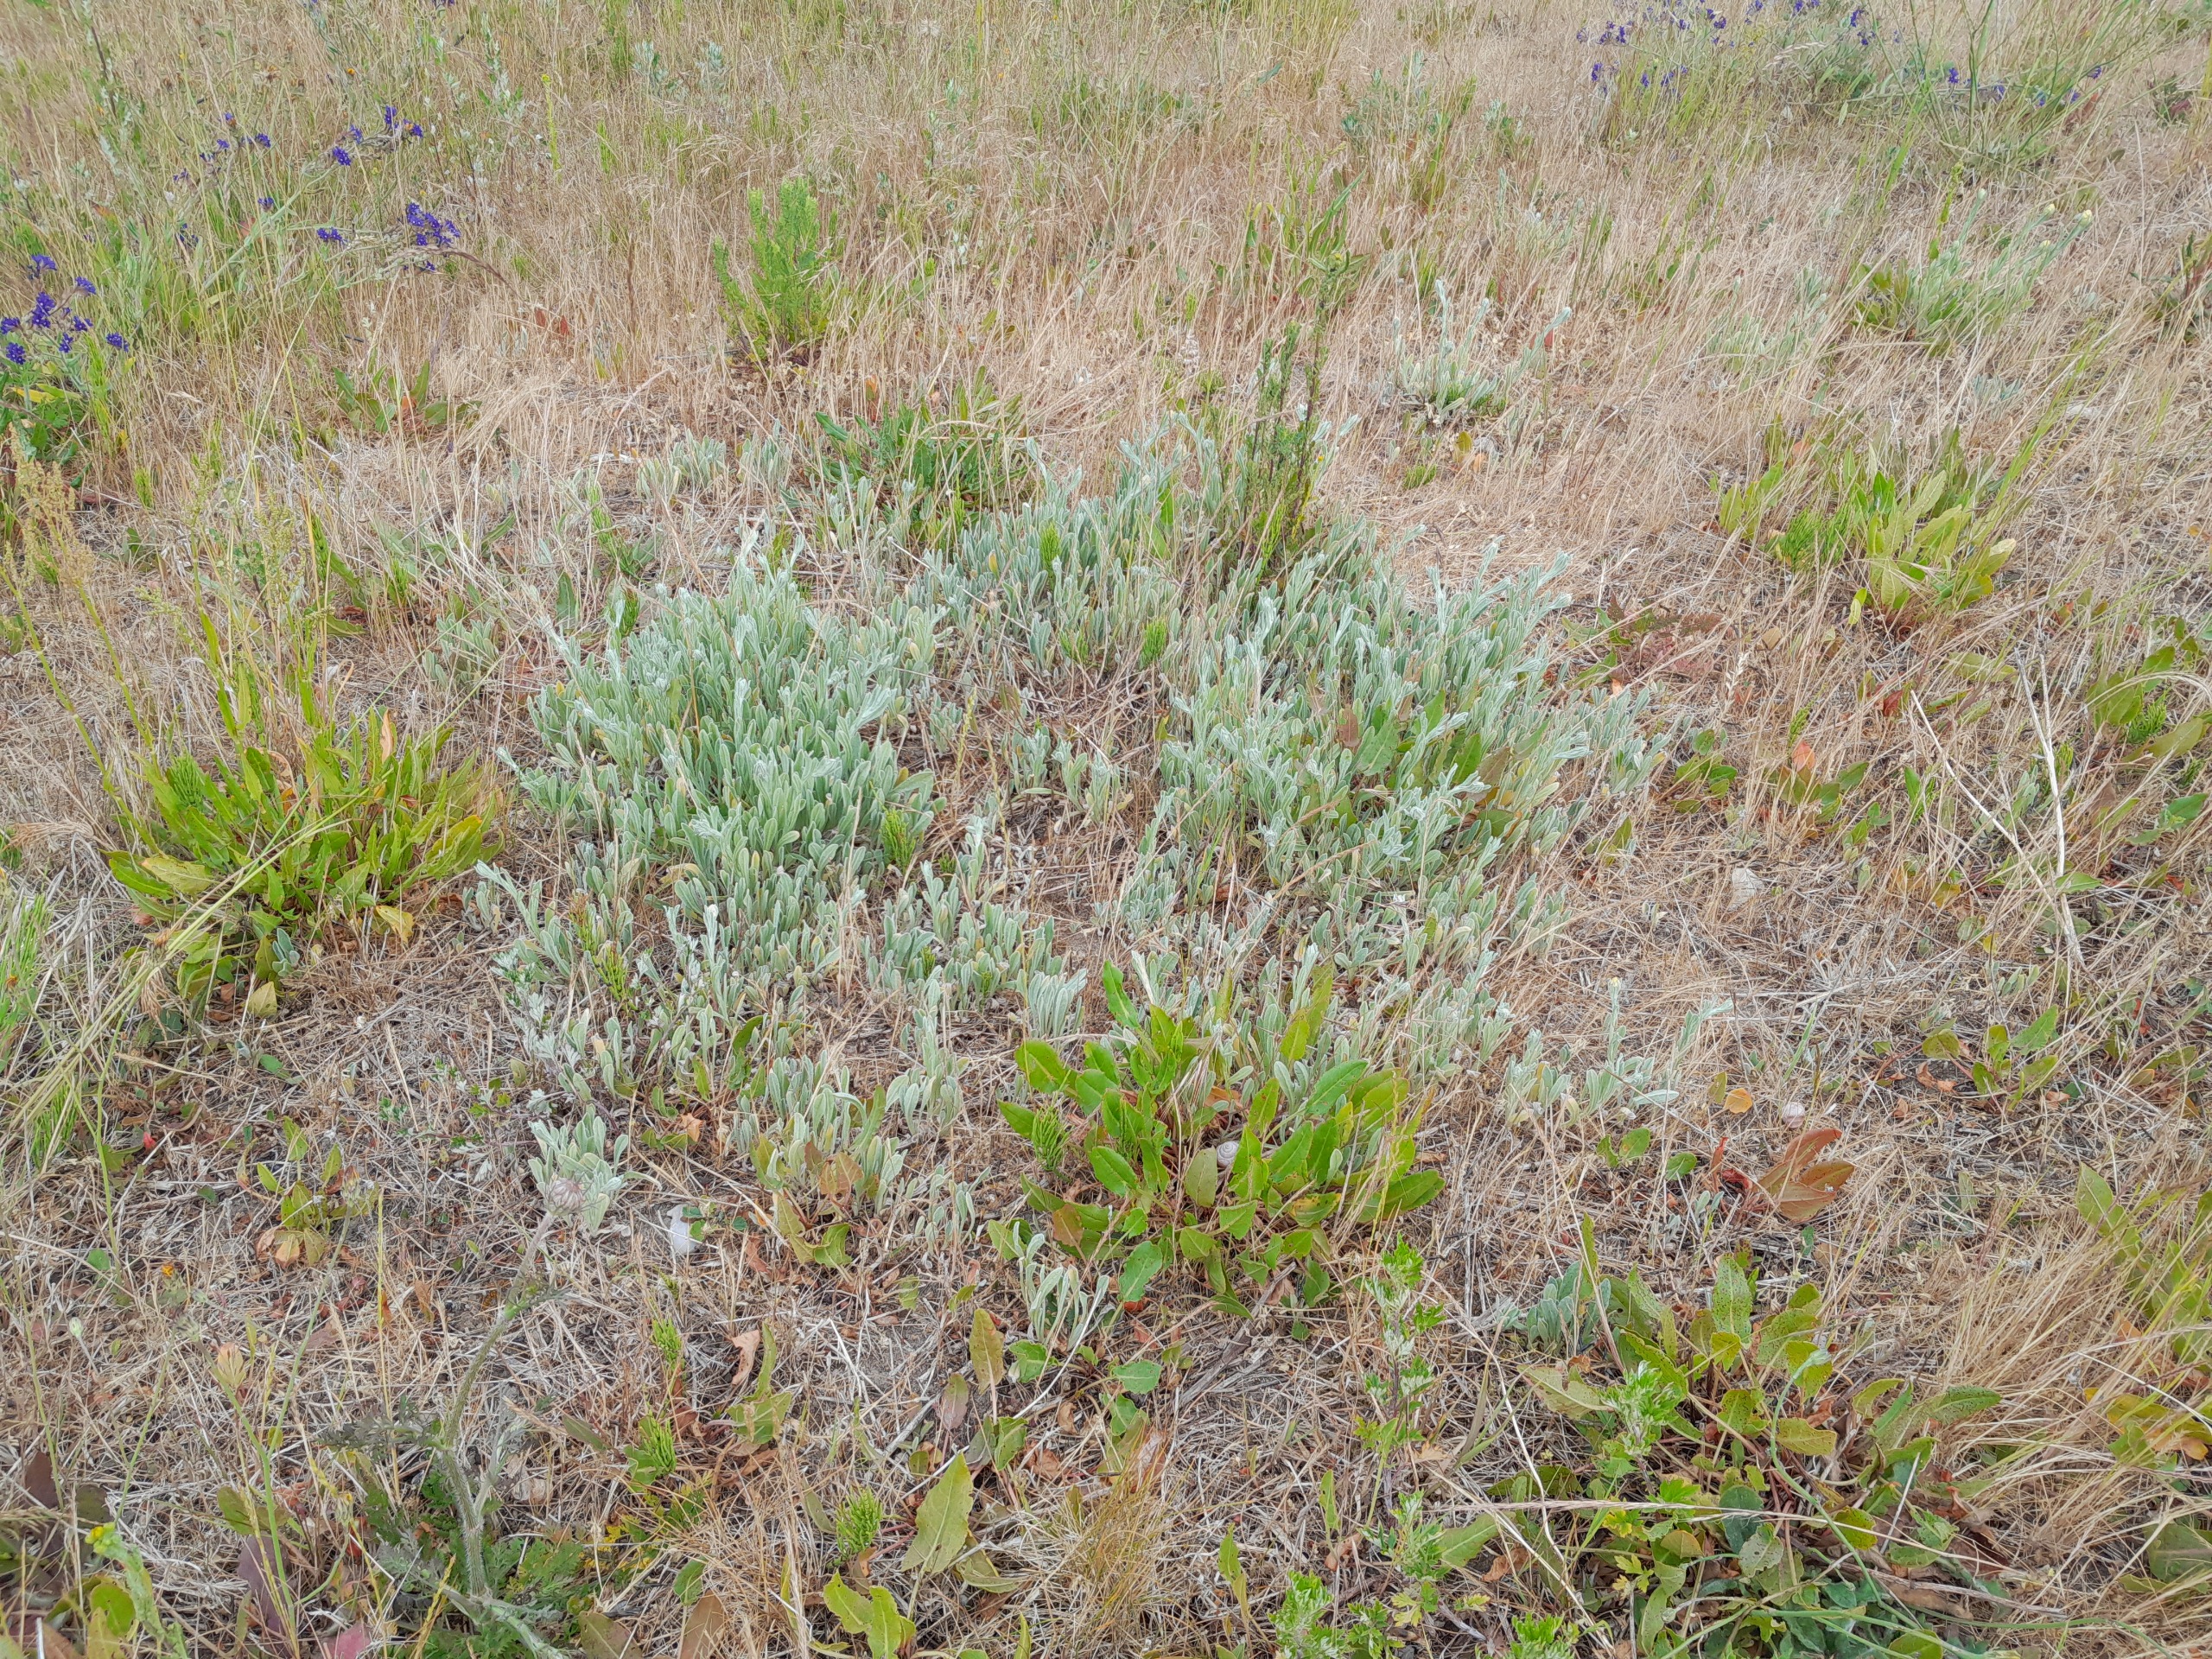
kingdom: Plantae
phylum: Tracheophyta
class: Magnoliopsida
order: Asterales
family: Asteraceae
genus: Helichrysum
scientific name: Helichrysum arenarium
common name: Gul evighedsblomst
